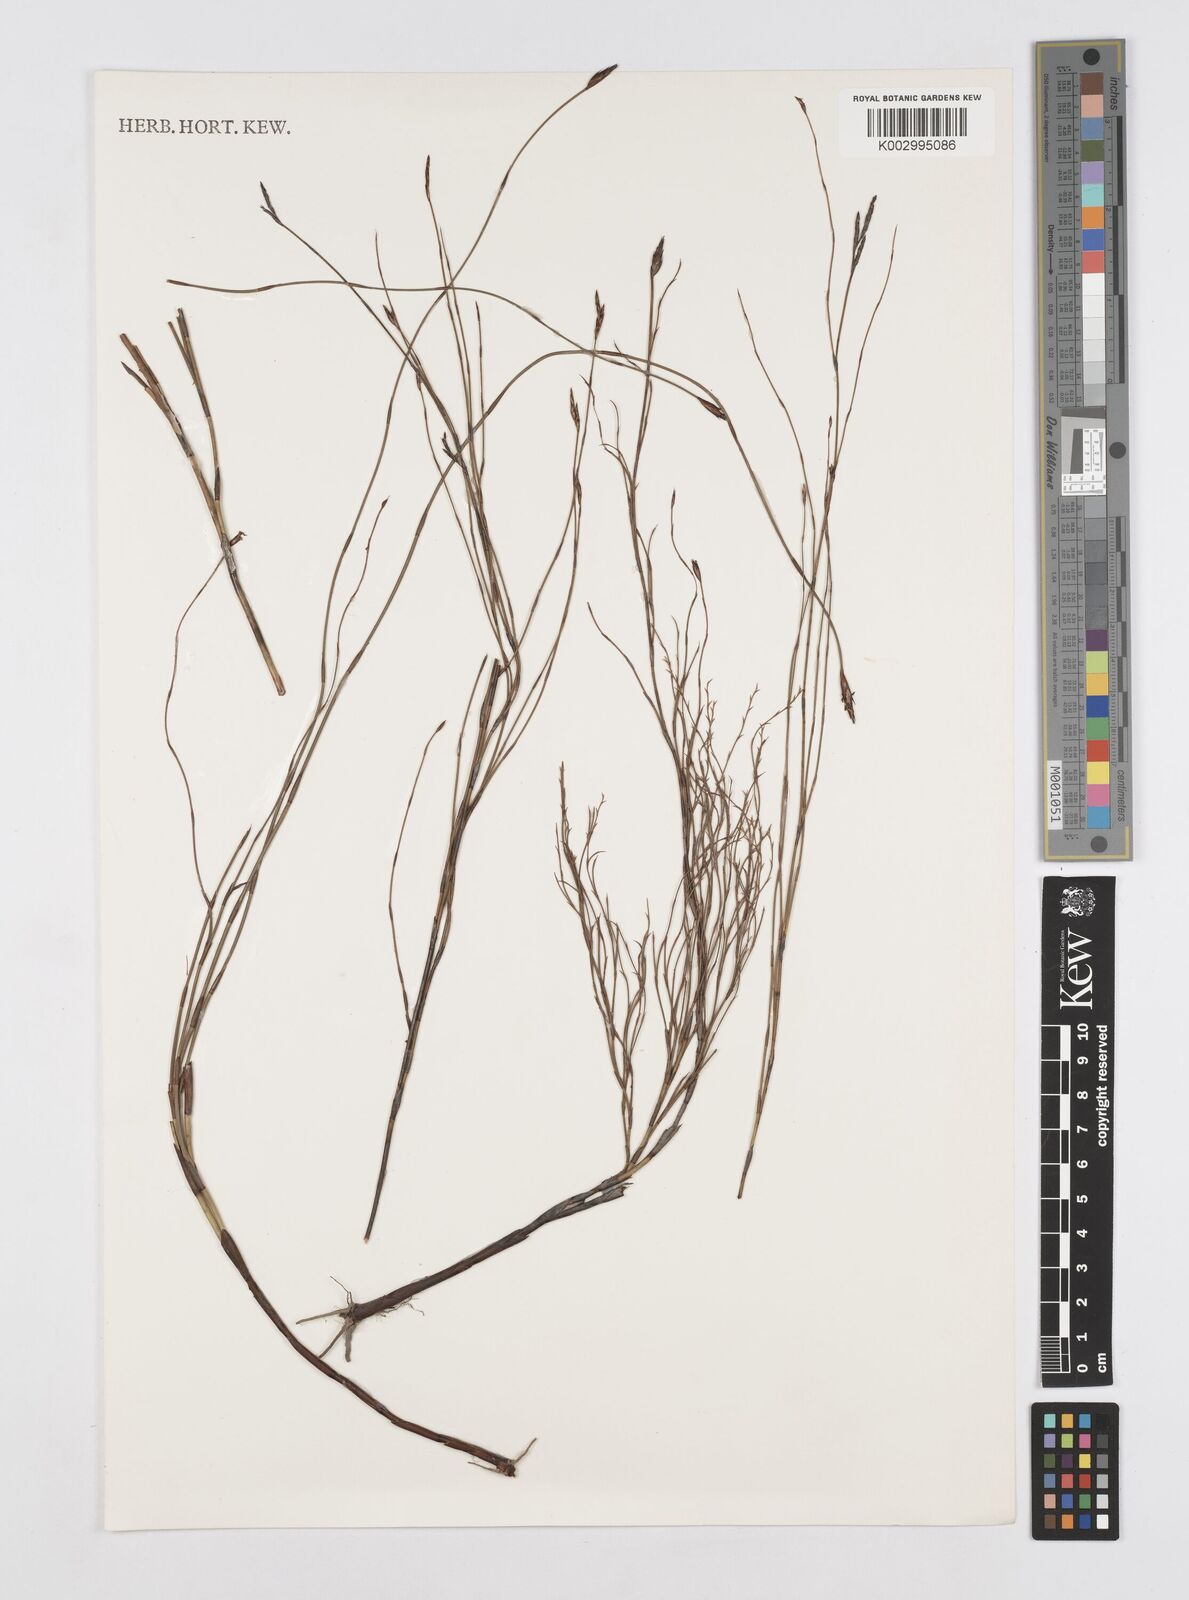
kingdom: Plantae
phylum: Tracheophyta
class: Liliopsida
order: Poales
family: Restionaceae
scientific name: Restionaceae
